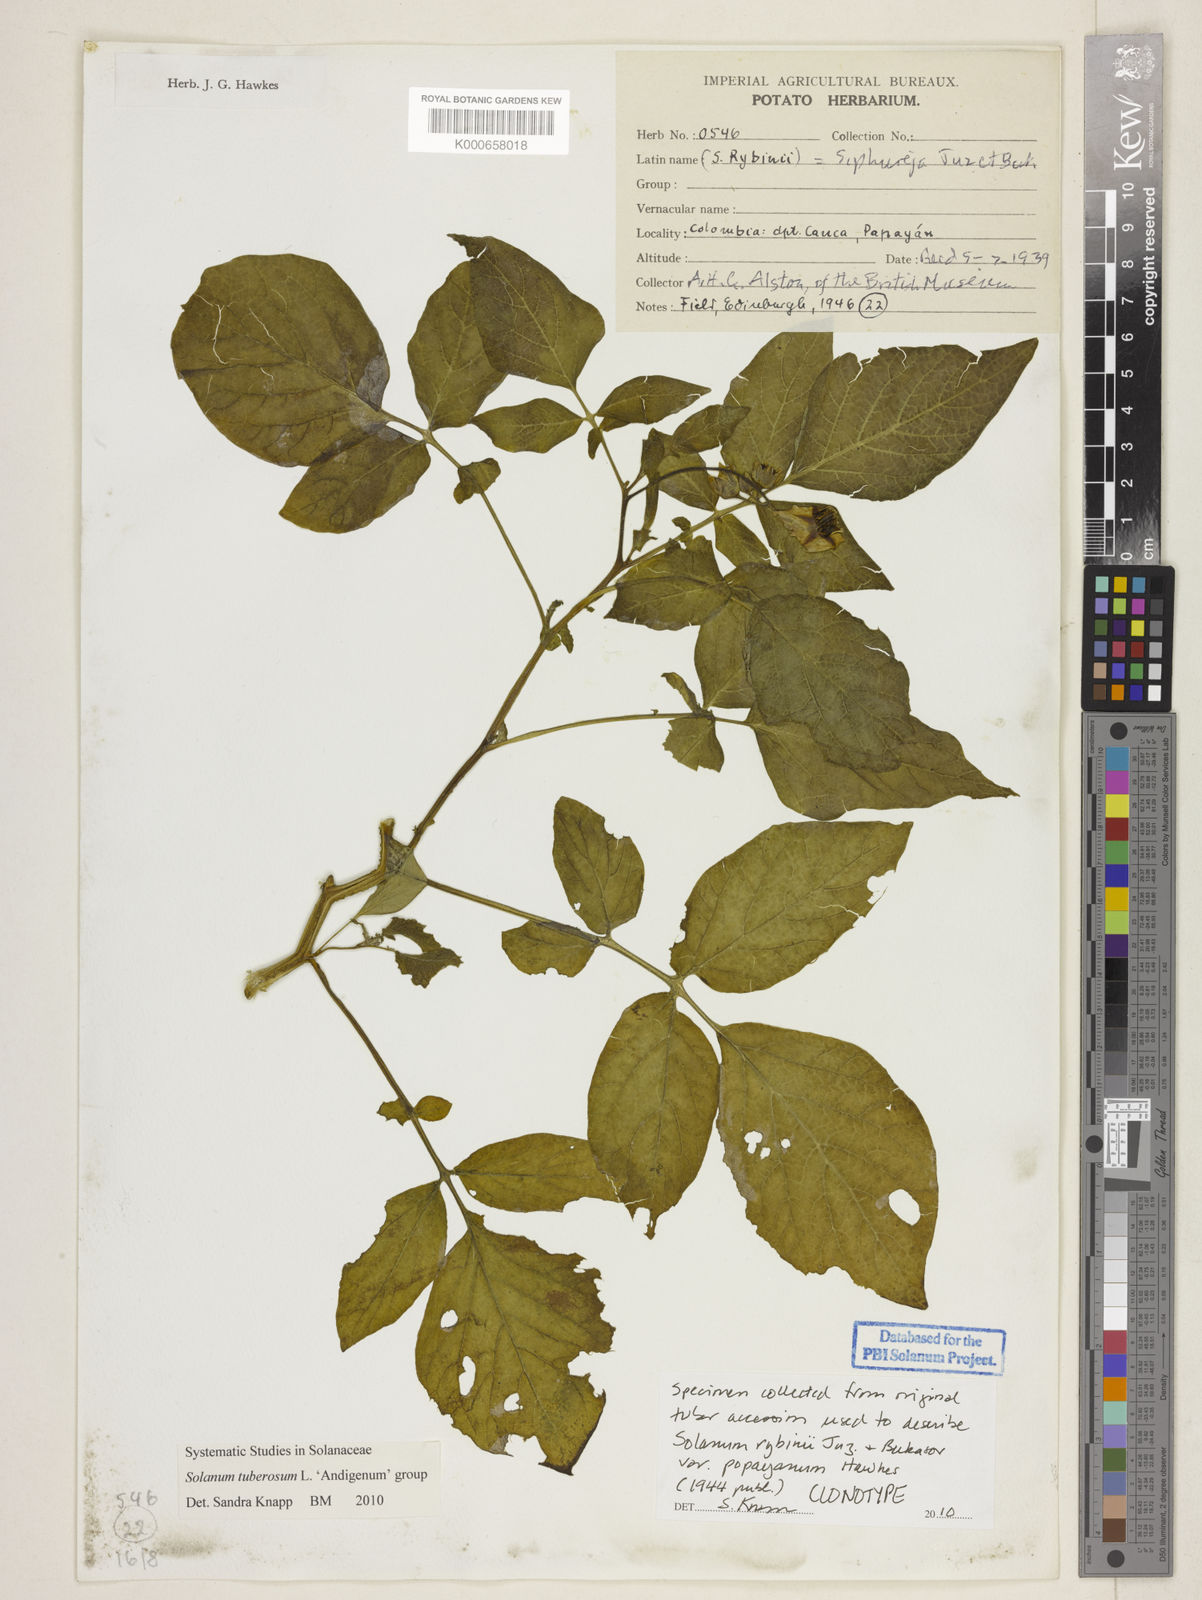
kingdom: Plantae
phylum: Tracheophyta
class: Magnoliopsida
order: Solanales
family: Solanaceae
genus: Solanum
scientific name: Solanum tuberosum
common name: Potato
